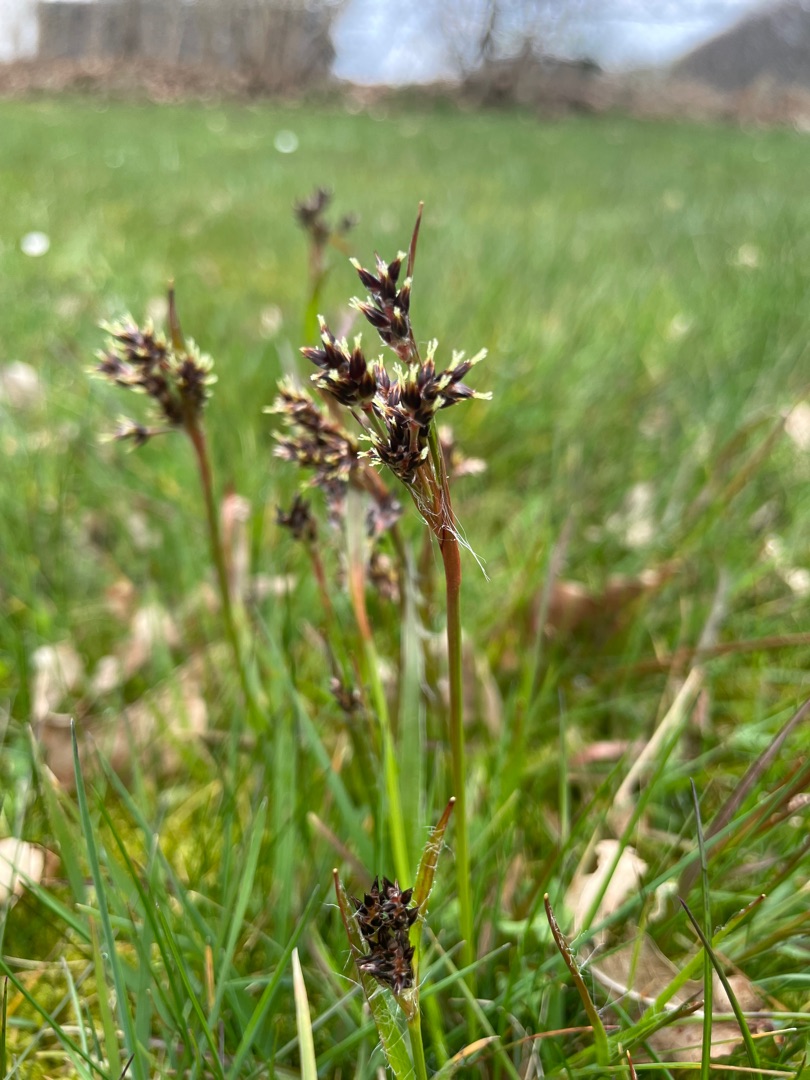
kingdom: Plantae
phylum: Tracheophyta
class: Liliopsida
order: Poales
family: Juncaceae
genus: Luzula
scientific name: Luzula campestris
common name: Mark-frytle
